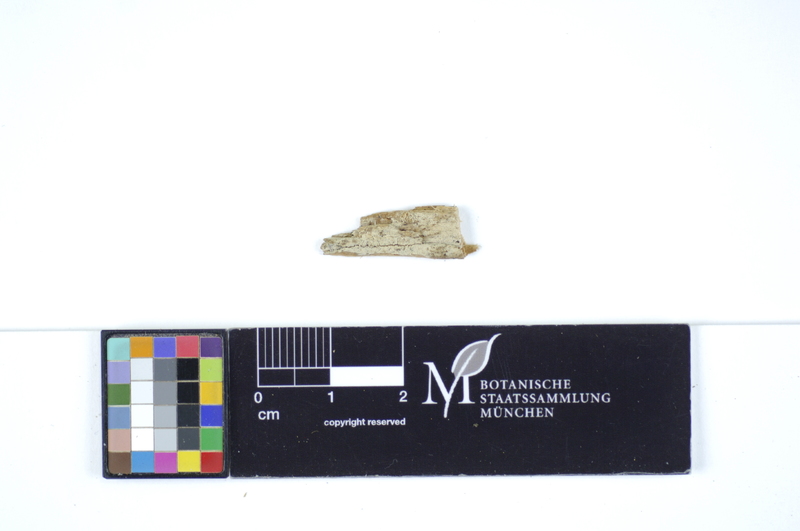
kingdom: Plantae
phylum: Tracheophyta
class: Pinopsida
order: Pinales
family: Pinaceae
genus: Pinus
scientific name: Pinus
